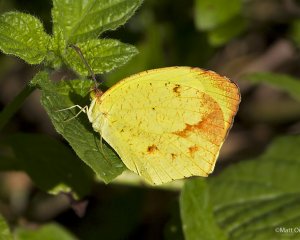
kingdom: Animalia
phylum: Arthropoda
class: Insecta
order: Lepidoptera
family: Pieridae
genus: Eurema
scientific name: Eurema boisduvaliana
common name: Boisduval's Yellow
